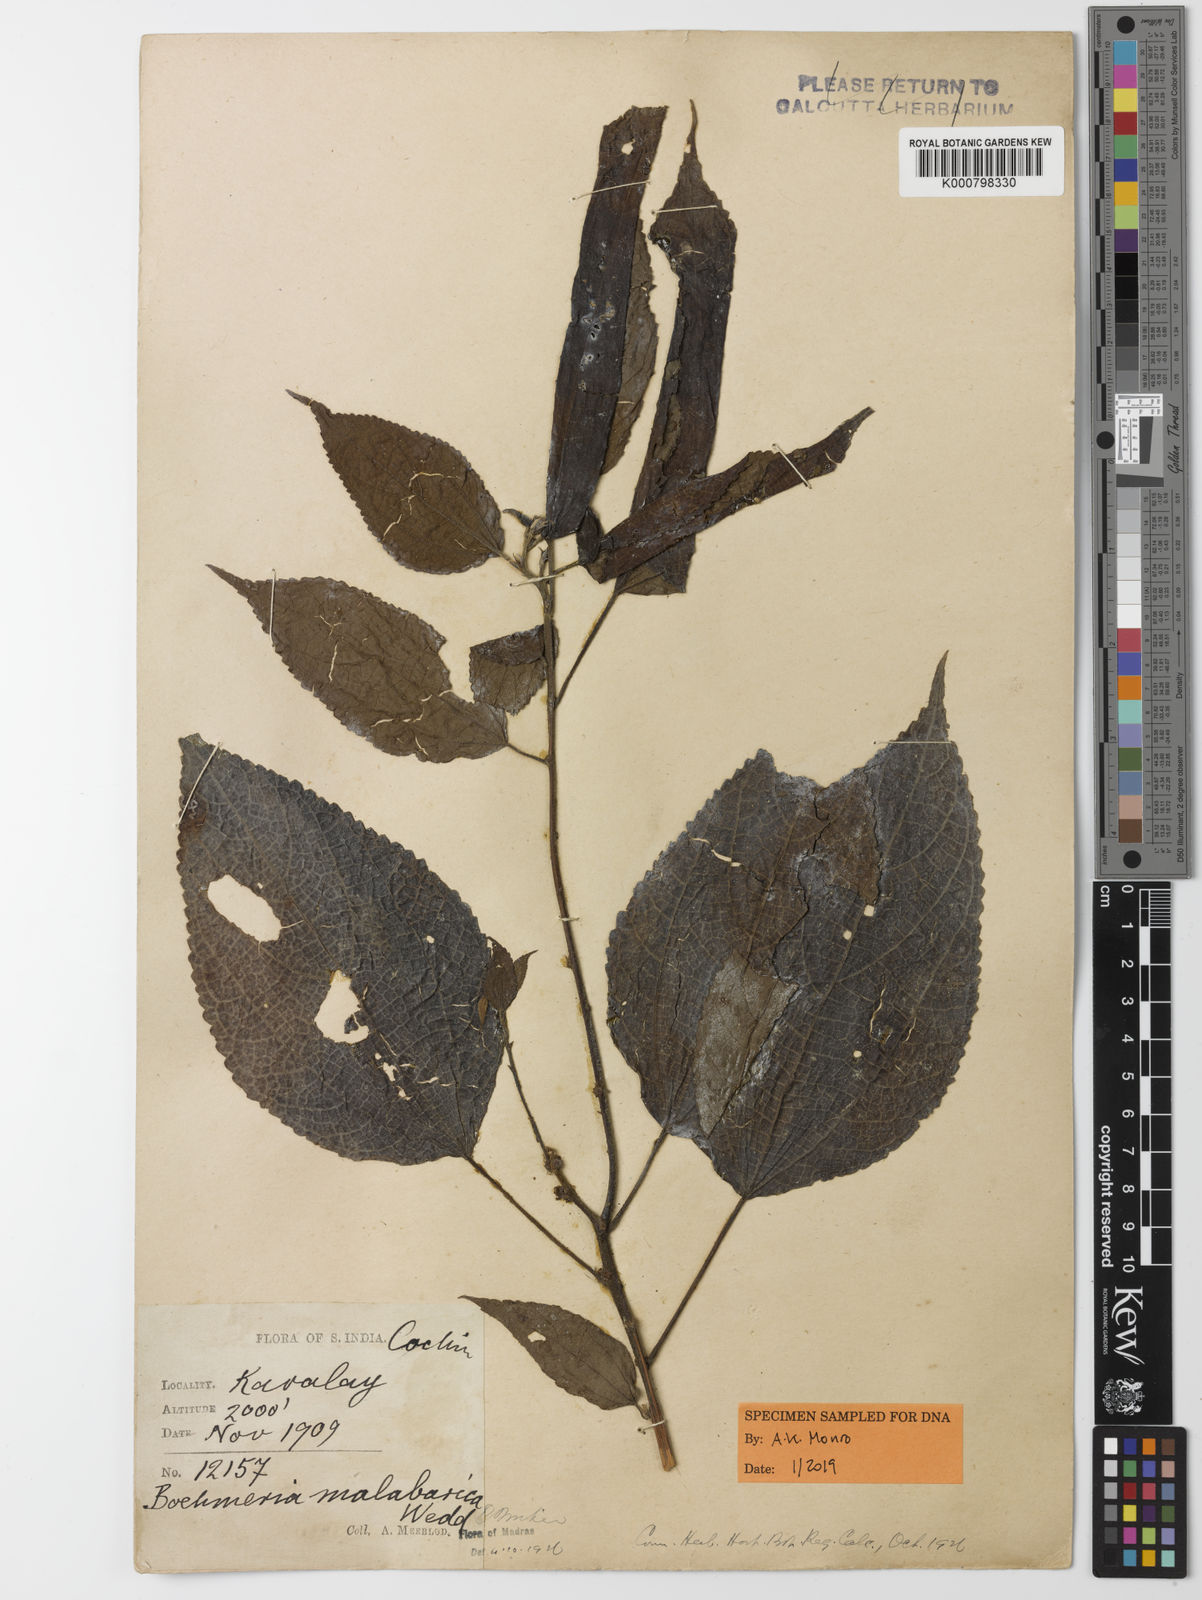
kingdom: Plantae
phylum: Tracheophyta
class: Magnoliopsida
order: Rosales
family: Urticaceae
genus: Boehmeria
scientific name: Boehmeria depauperata
